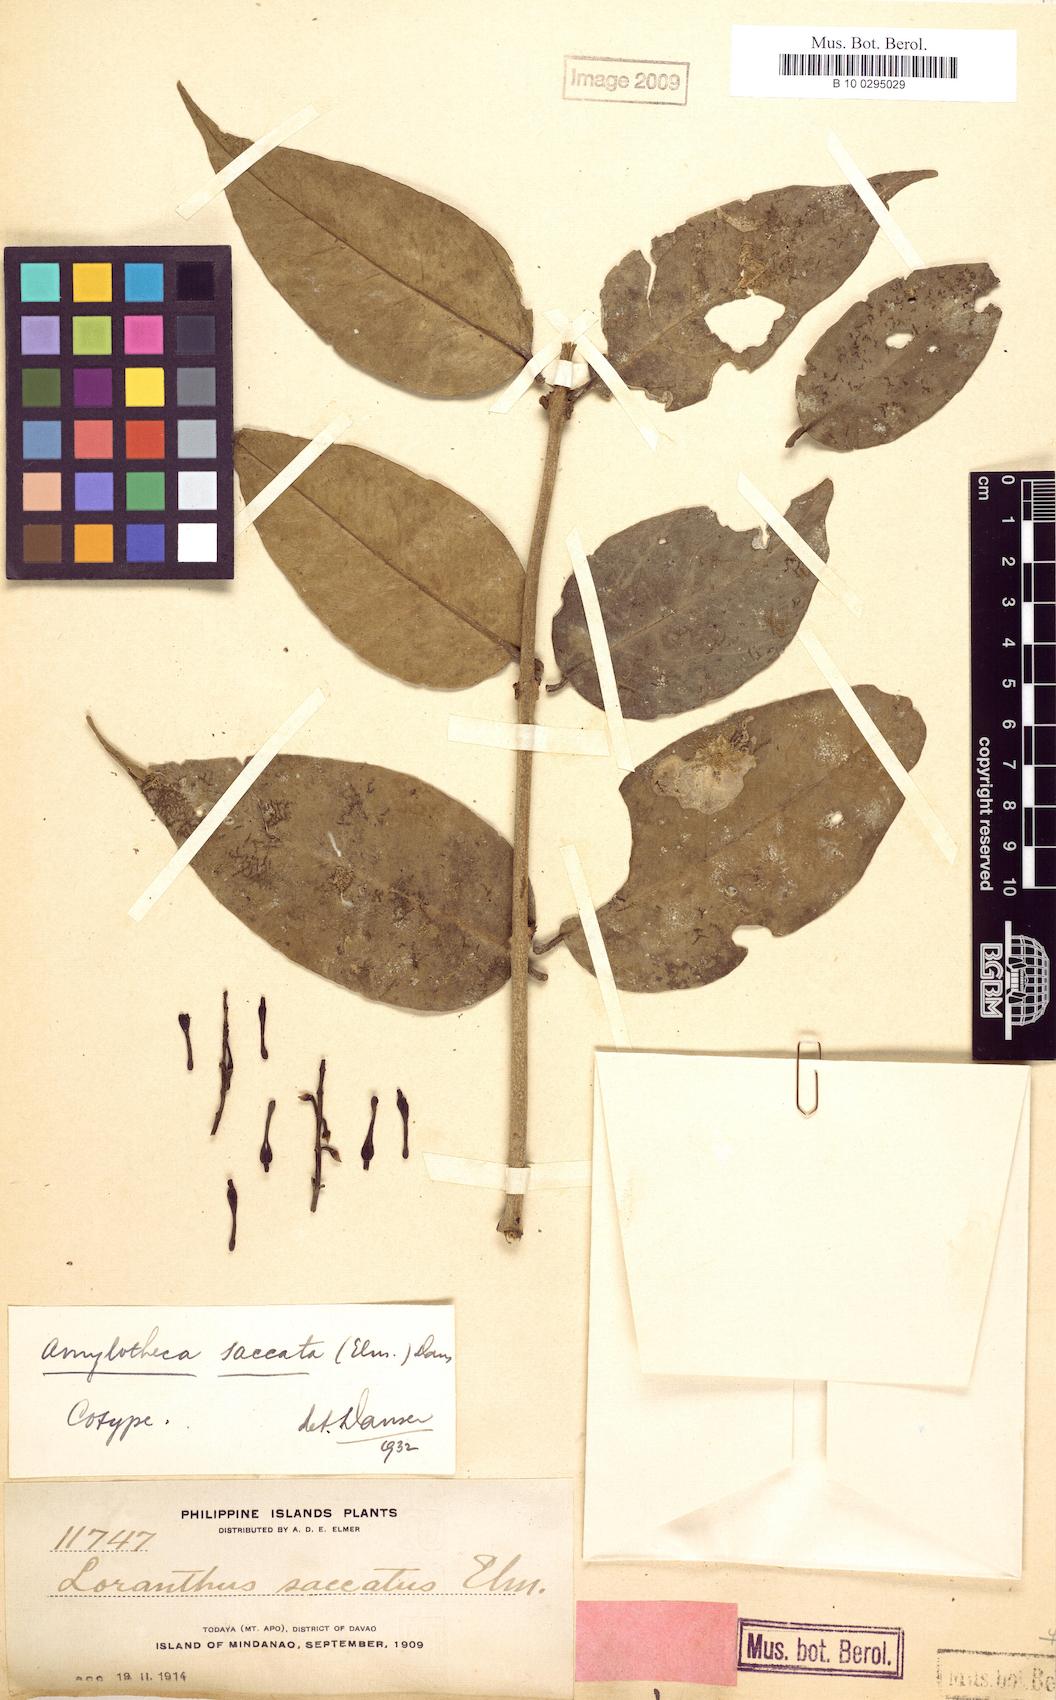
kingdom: Plantae
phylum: Tracheophyta
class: Magnoliopsida
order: Santalales
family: Loranthaceae
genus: Decaisnina
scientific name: Decaisnina aherniana
